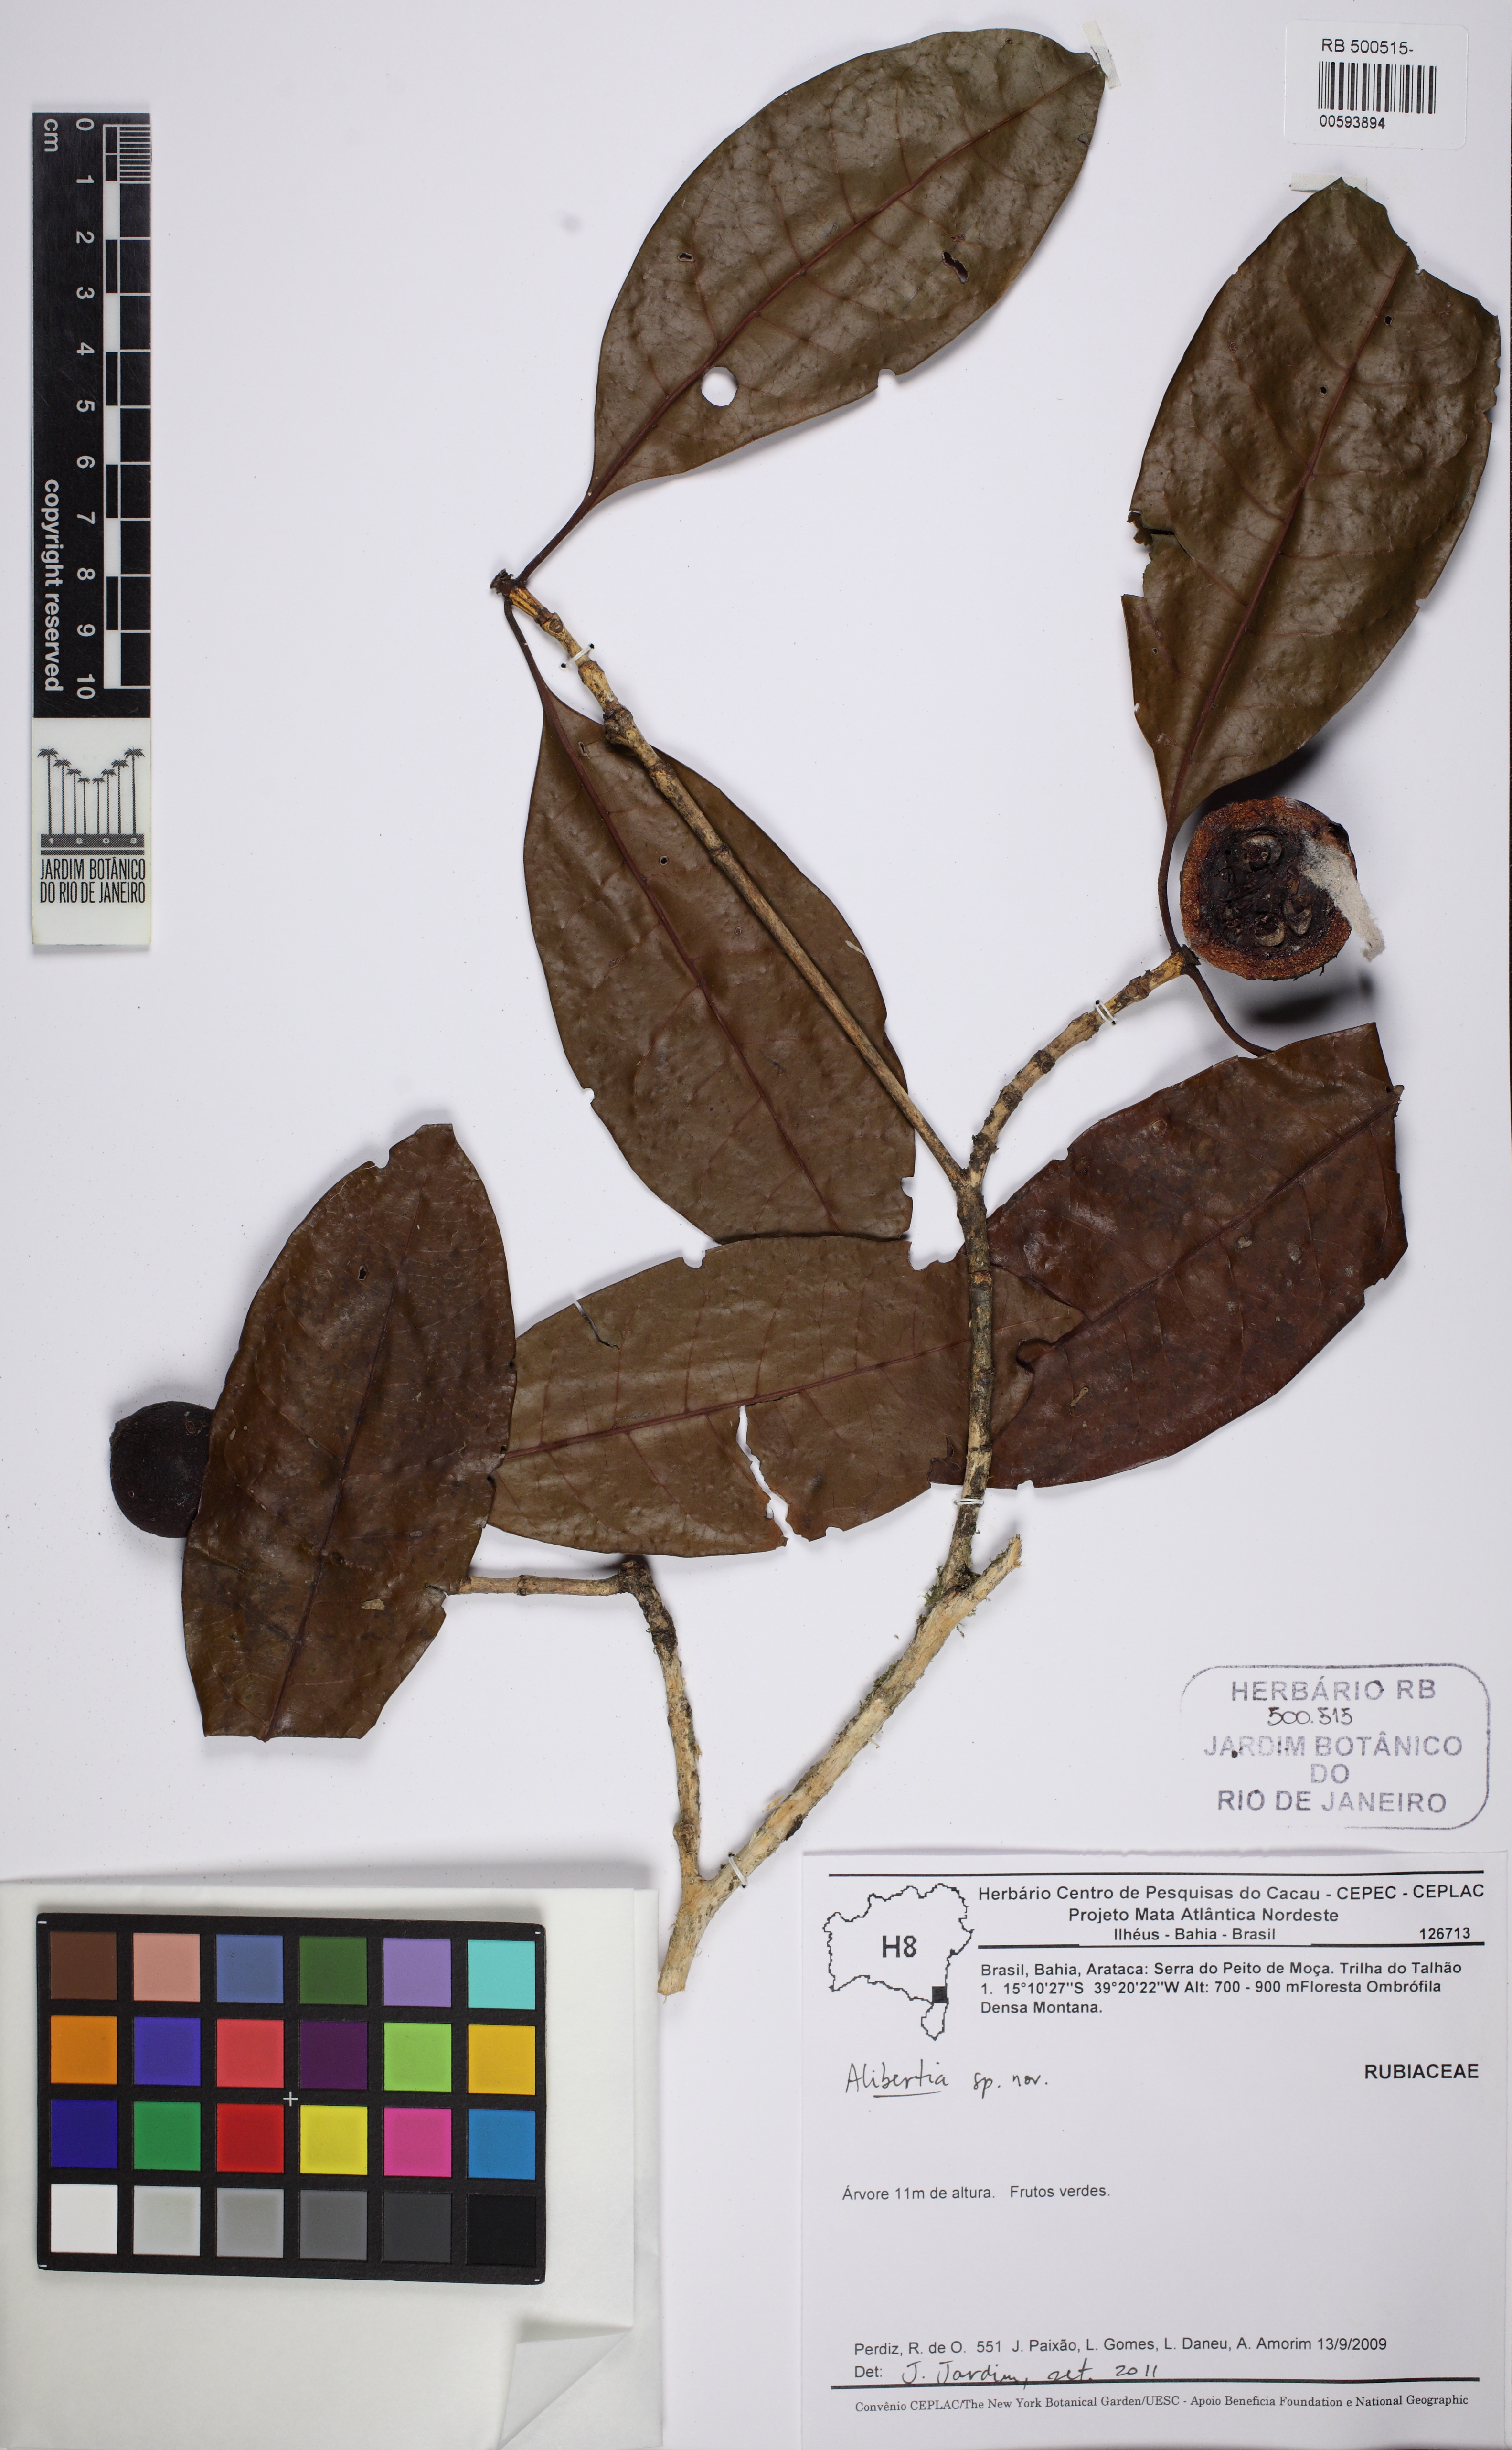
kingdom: Plantae
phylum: Tracheophyta
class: Magnoliopsida
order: Gentianales
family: Rubiaceae
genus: Stachyarrhena
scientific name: Stachyarrhena
